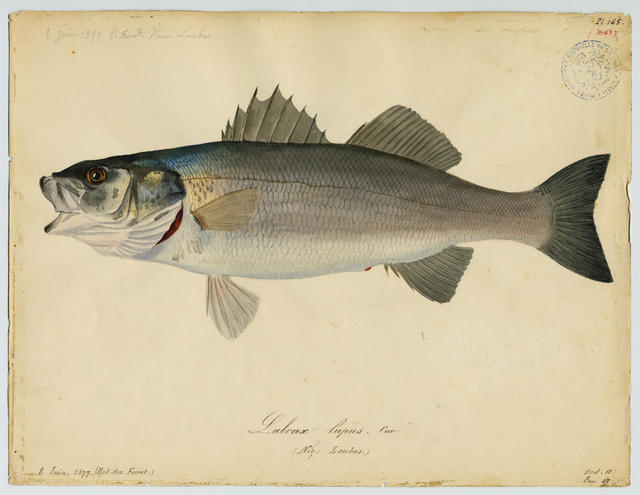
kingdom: Animalia
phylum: Chordata
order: Perciformes
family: Moronidae
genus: Dicentrarchus
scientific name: Dicentrarchus labrax
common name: European seabass
